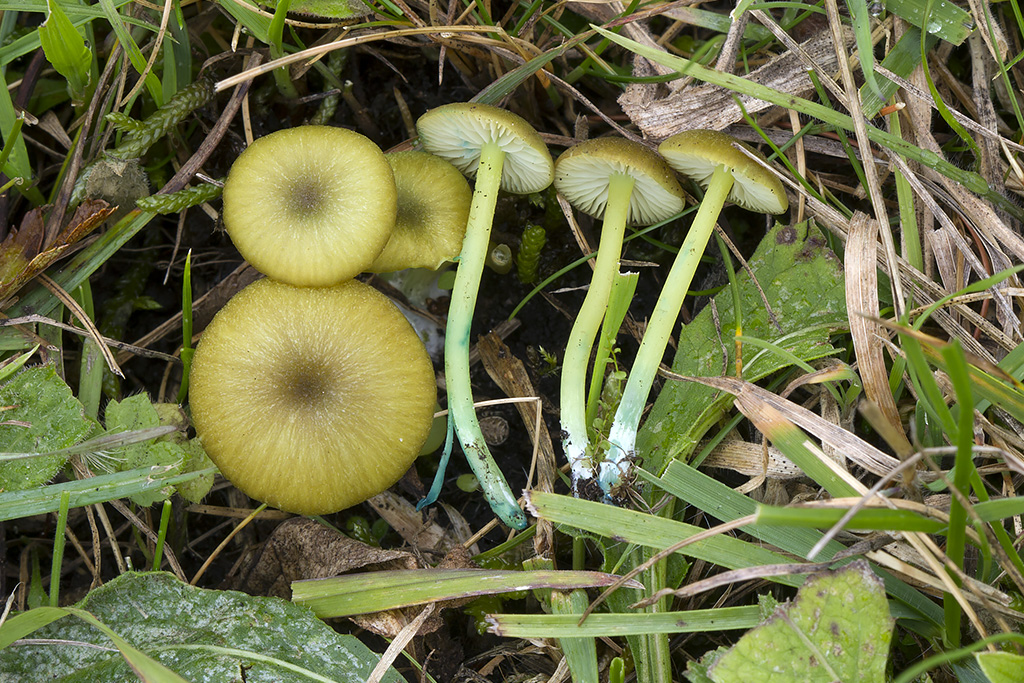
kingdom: Fungi
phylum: Basidiomycota
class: Agaricomycetes
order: Agaricales
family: Entolomataceae
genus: Entoloma
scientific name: Entoloma incanum
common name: grøngul rødblad
